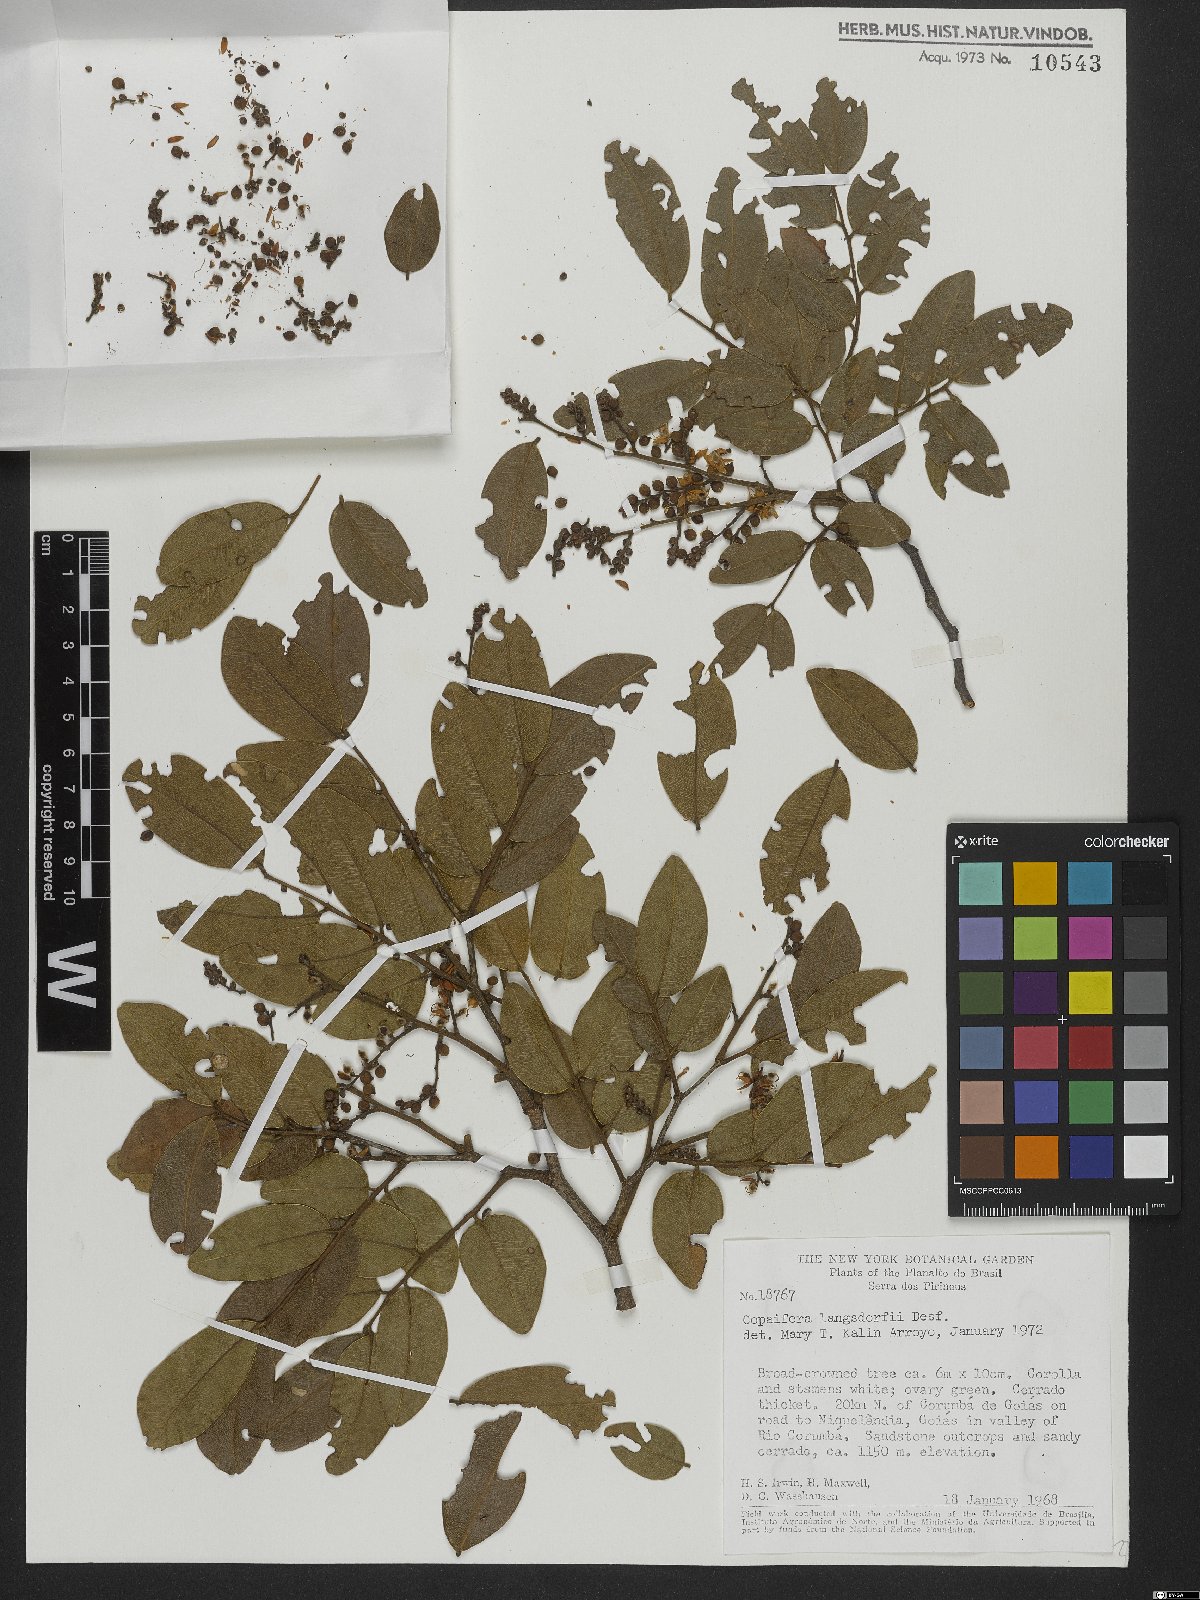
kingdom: Plantae
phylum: Tracheophyta
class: Magnoliopsida
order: Fabales
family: Fabaceae
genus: Copaifera
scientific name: Copaifera langsdorffii
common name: Brazilian diesel tree
